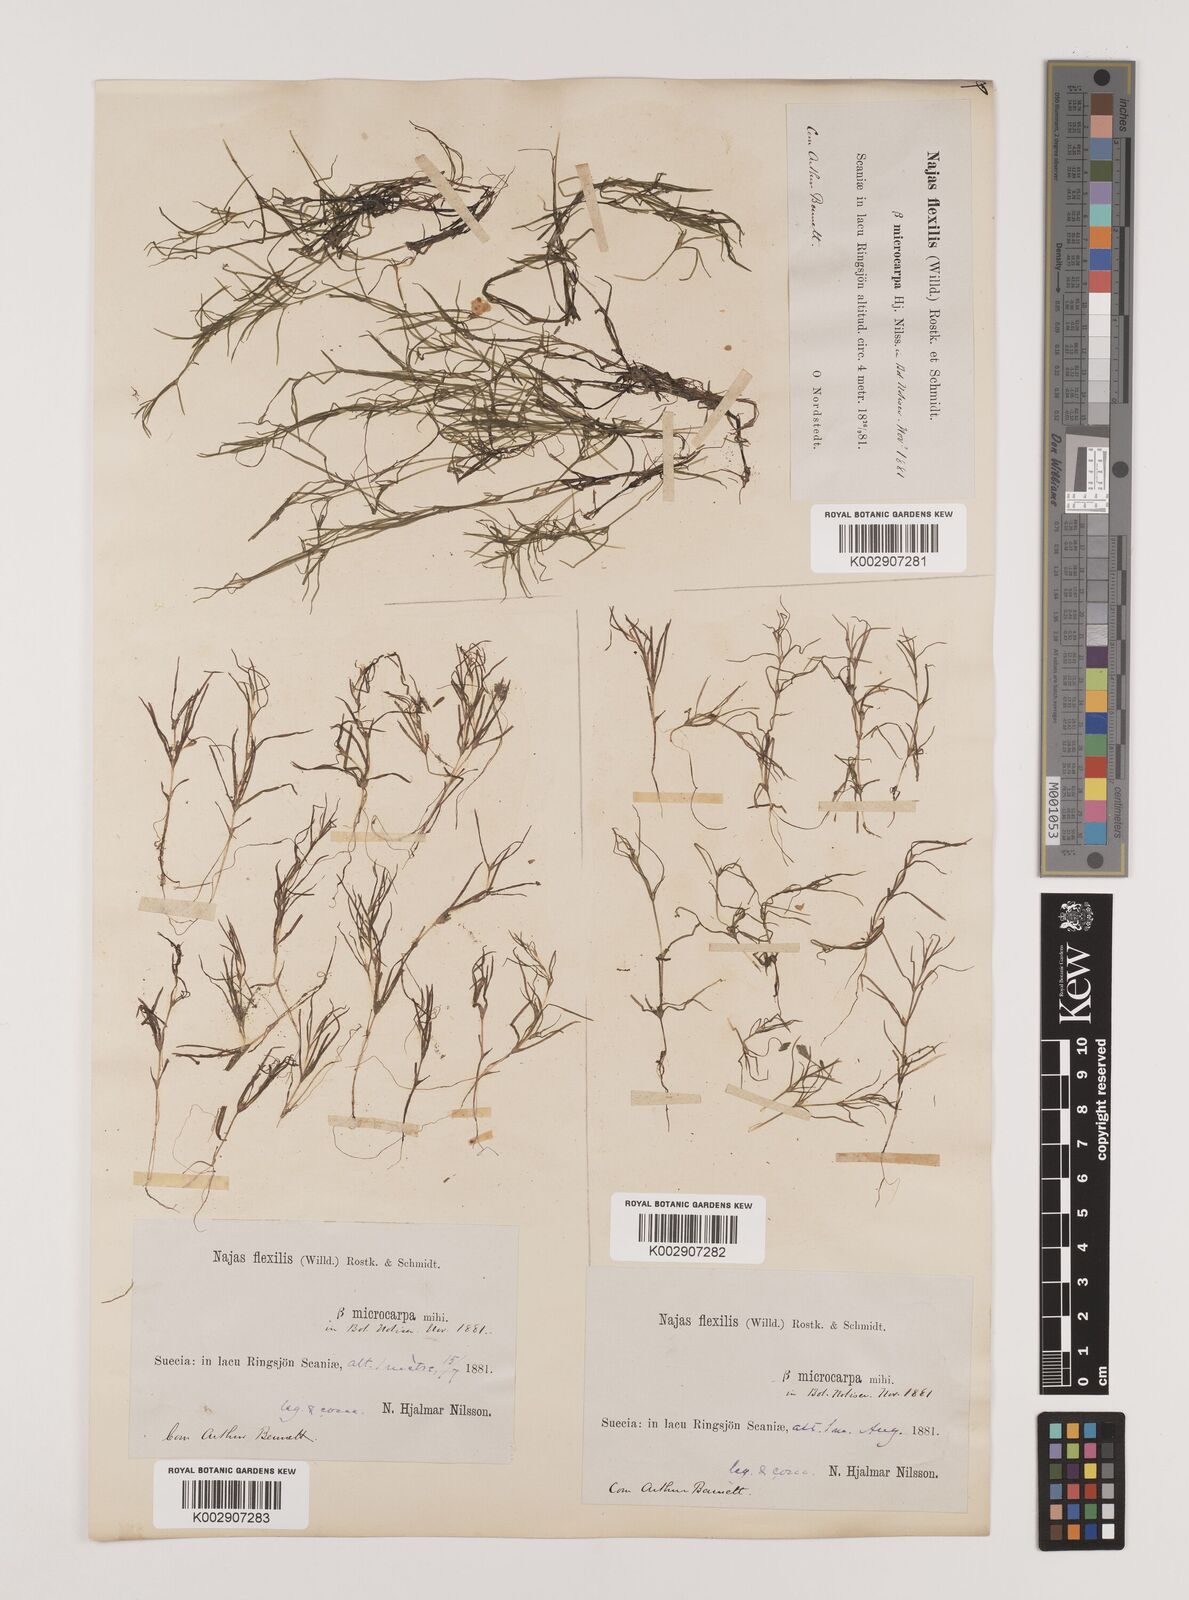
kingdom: Plantae
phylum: Tracheophyta
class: Liliopsida
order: Alismatales
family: Hydrocharitaceae
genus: Najas
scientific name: Najas flexilis
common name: Slender naiad
